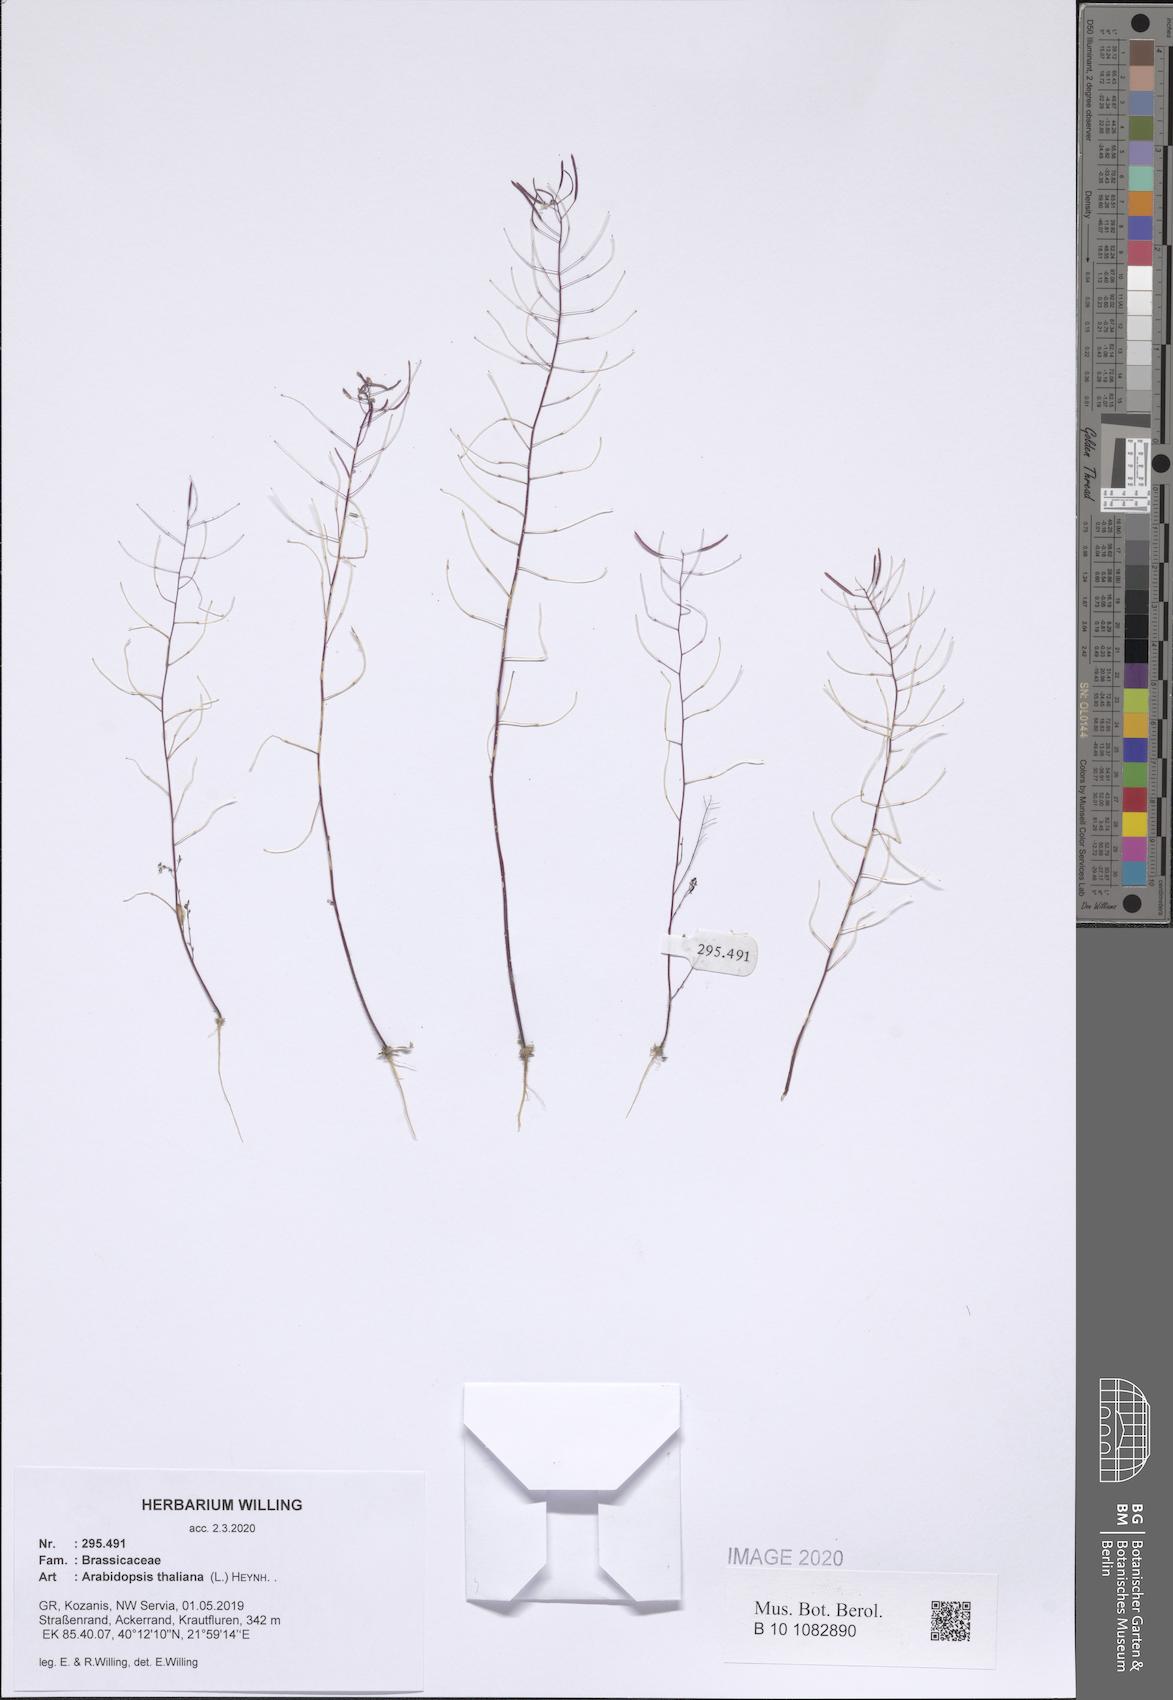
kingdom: Plantae
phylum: Tracheophyta
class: Magnoliopsida
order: Brassicales
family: Brassicaceae
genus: Arabidopsis
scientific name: Arabidopsis thaliana
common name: Thale cress
